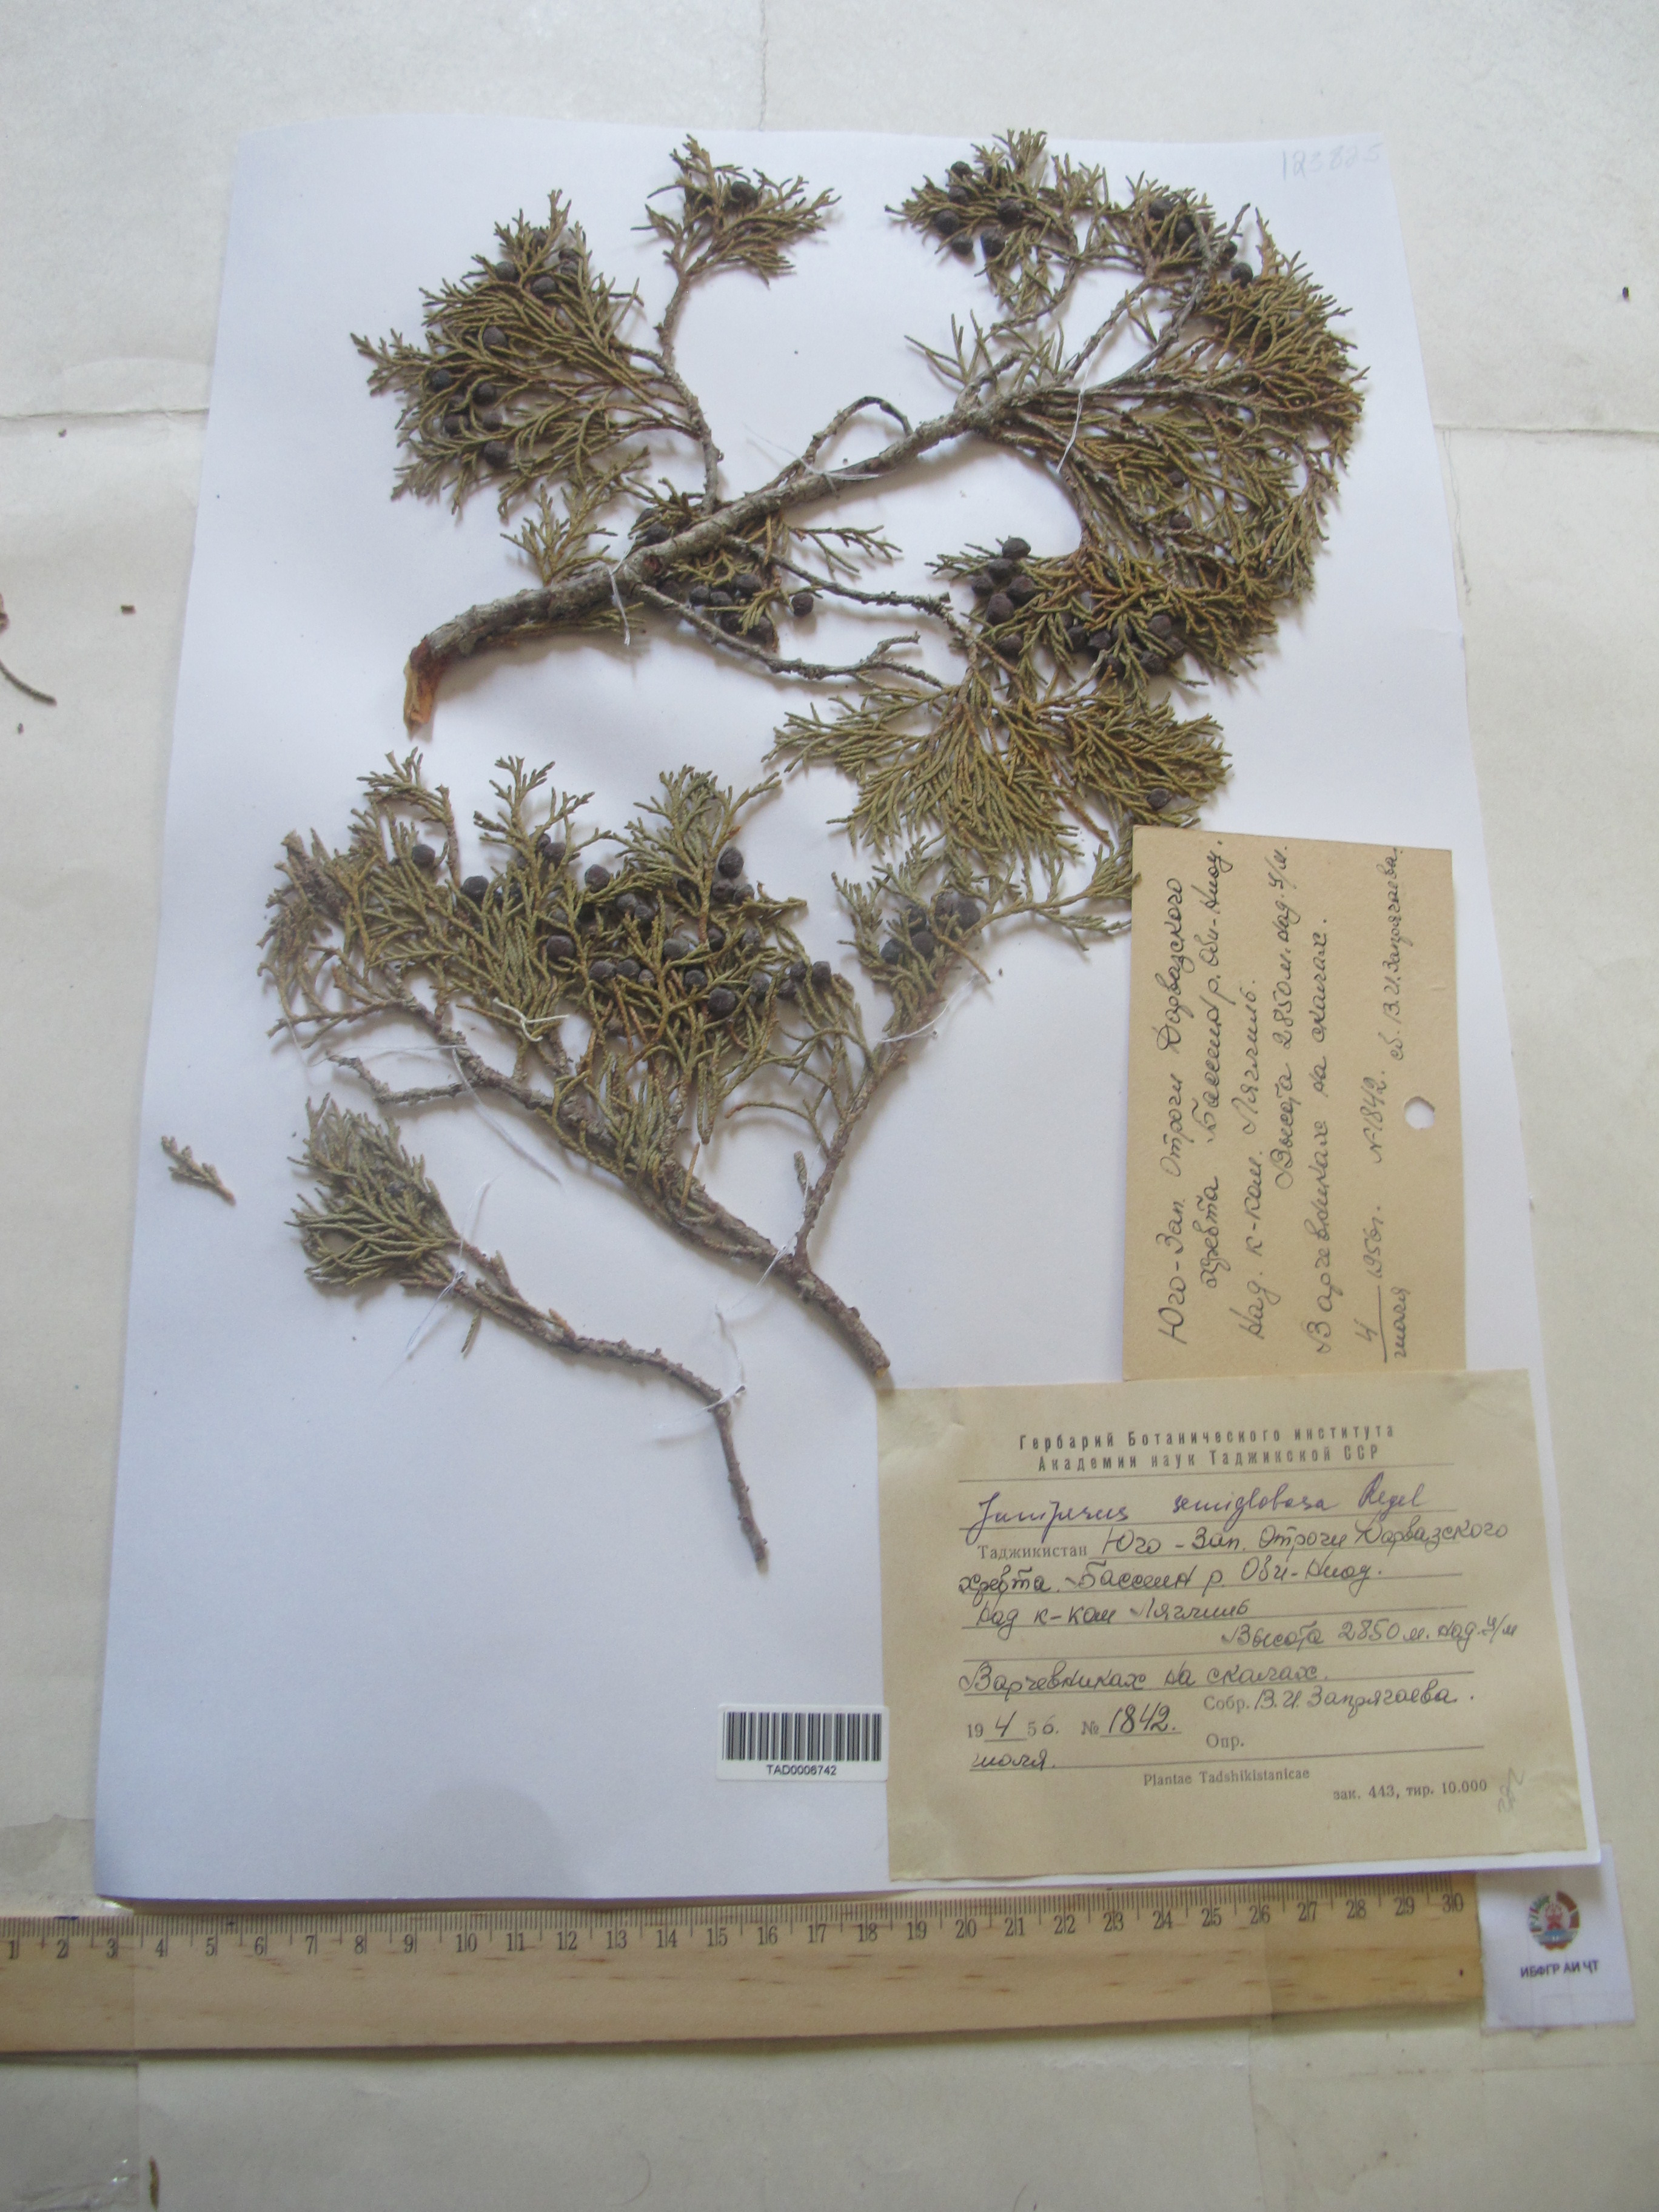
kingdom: Plantae
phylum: Tracheophyta
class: Pinopsida
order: Pinales
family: Cupressaceae
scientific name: Cupressaceae
